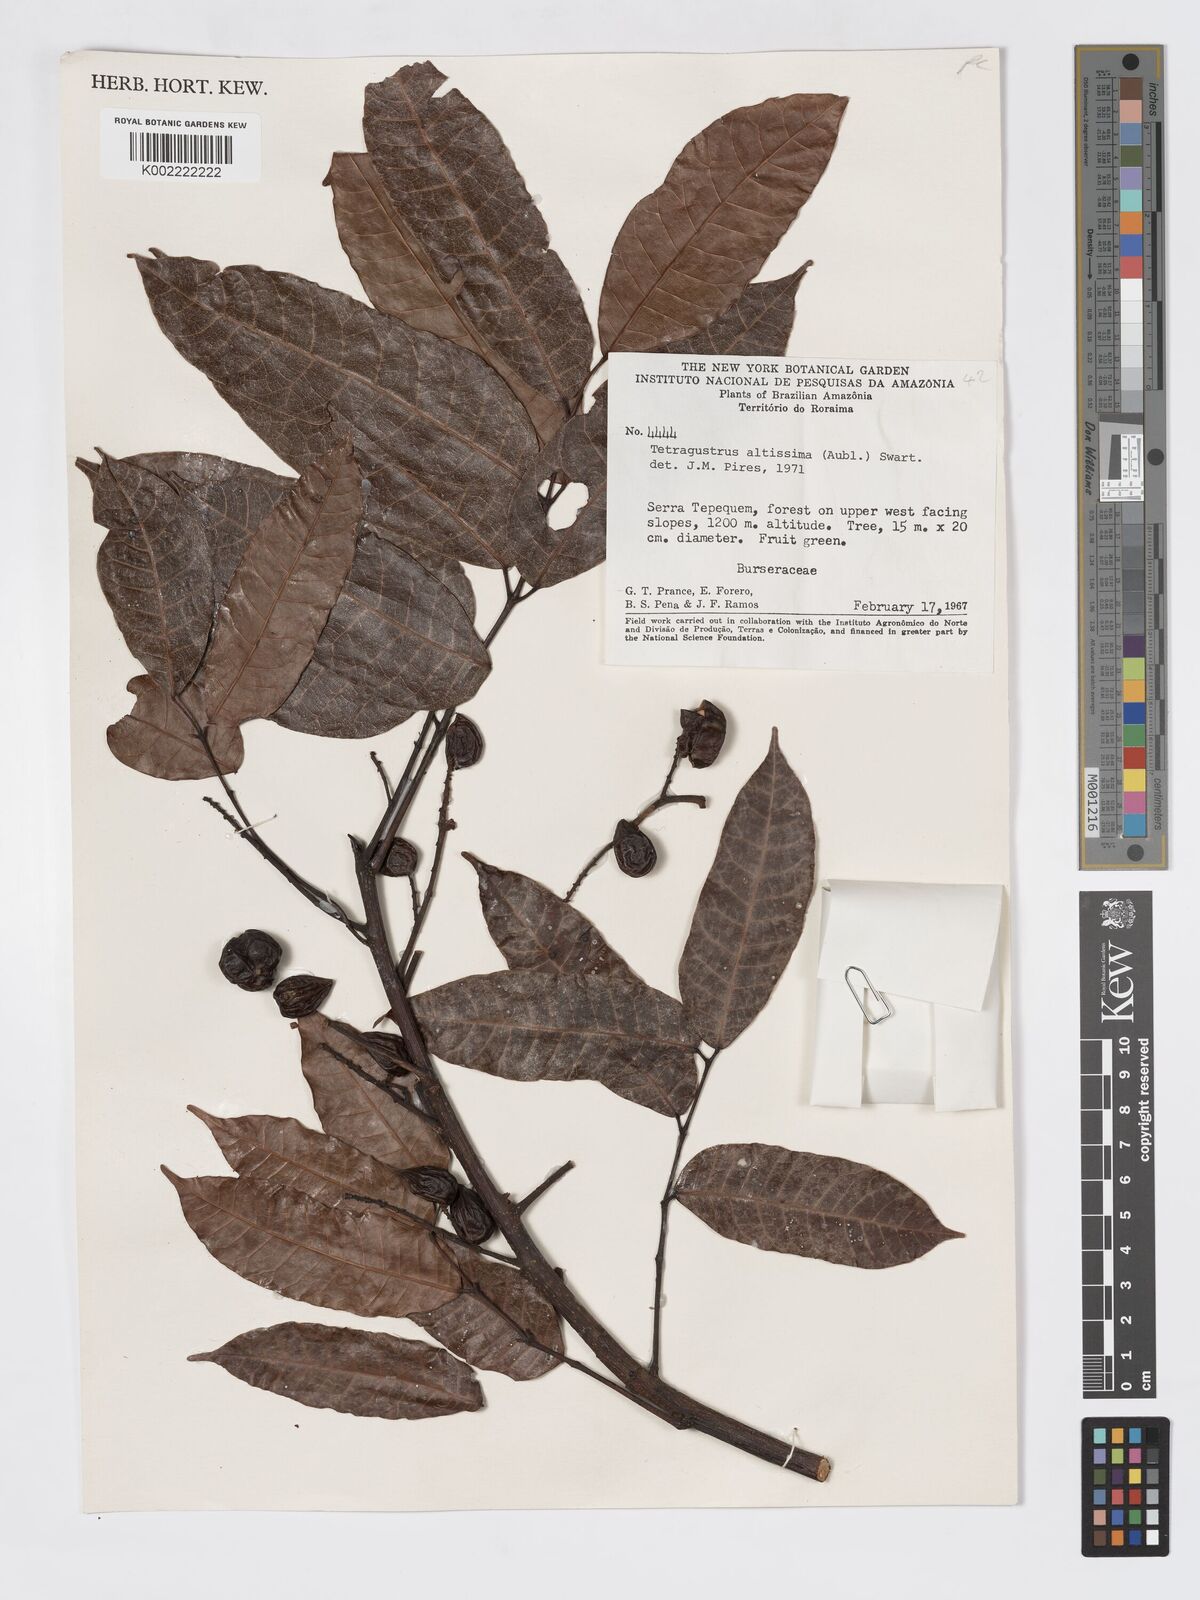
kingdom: Plantae
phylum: Tracheophyta
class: Magnoliopsida
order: Sapindales
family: Burseraceae
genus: Tetragastris
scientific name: Tetragastris altissima
